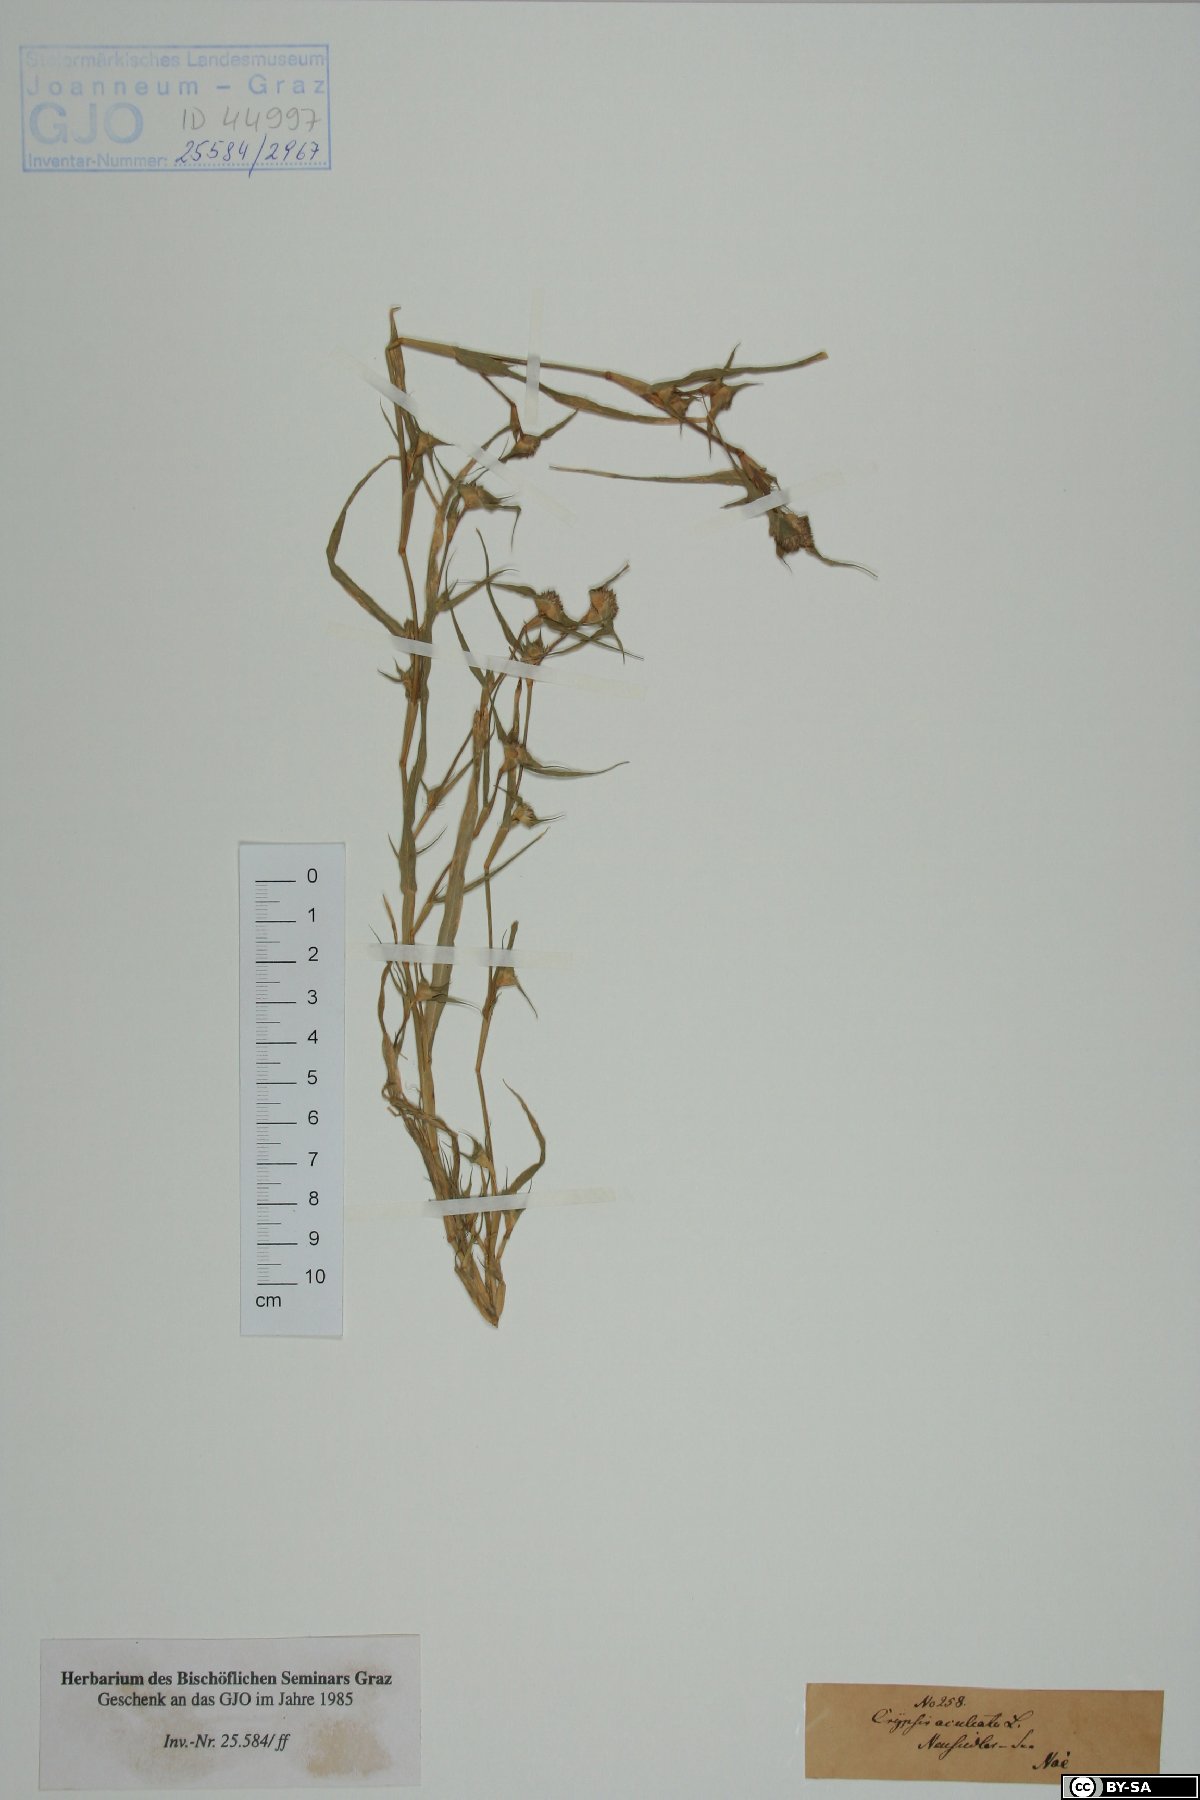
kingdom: Plantae
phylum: Tracheophyta
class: Liliopsida
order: Poales
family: Poaceae
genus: Sporobolus
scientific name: Sporobolus aculeatus
